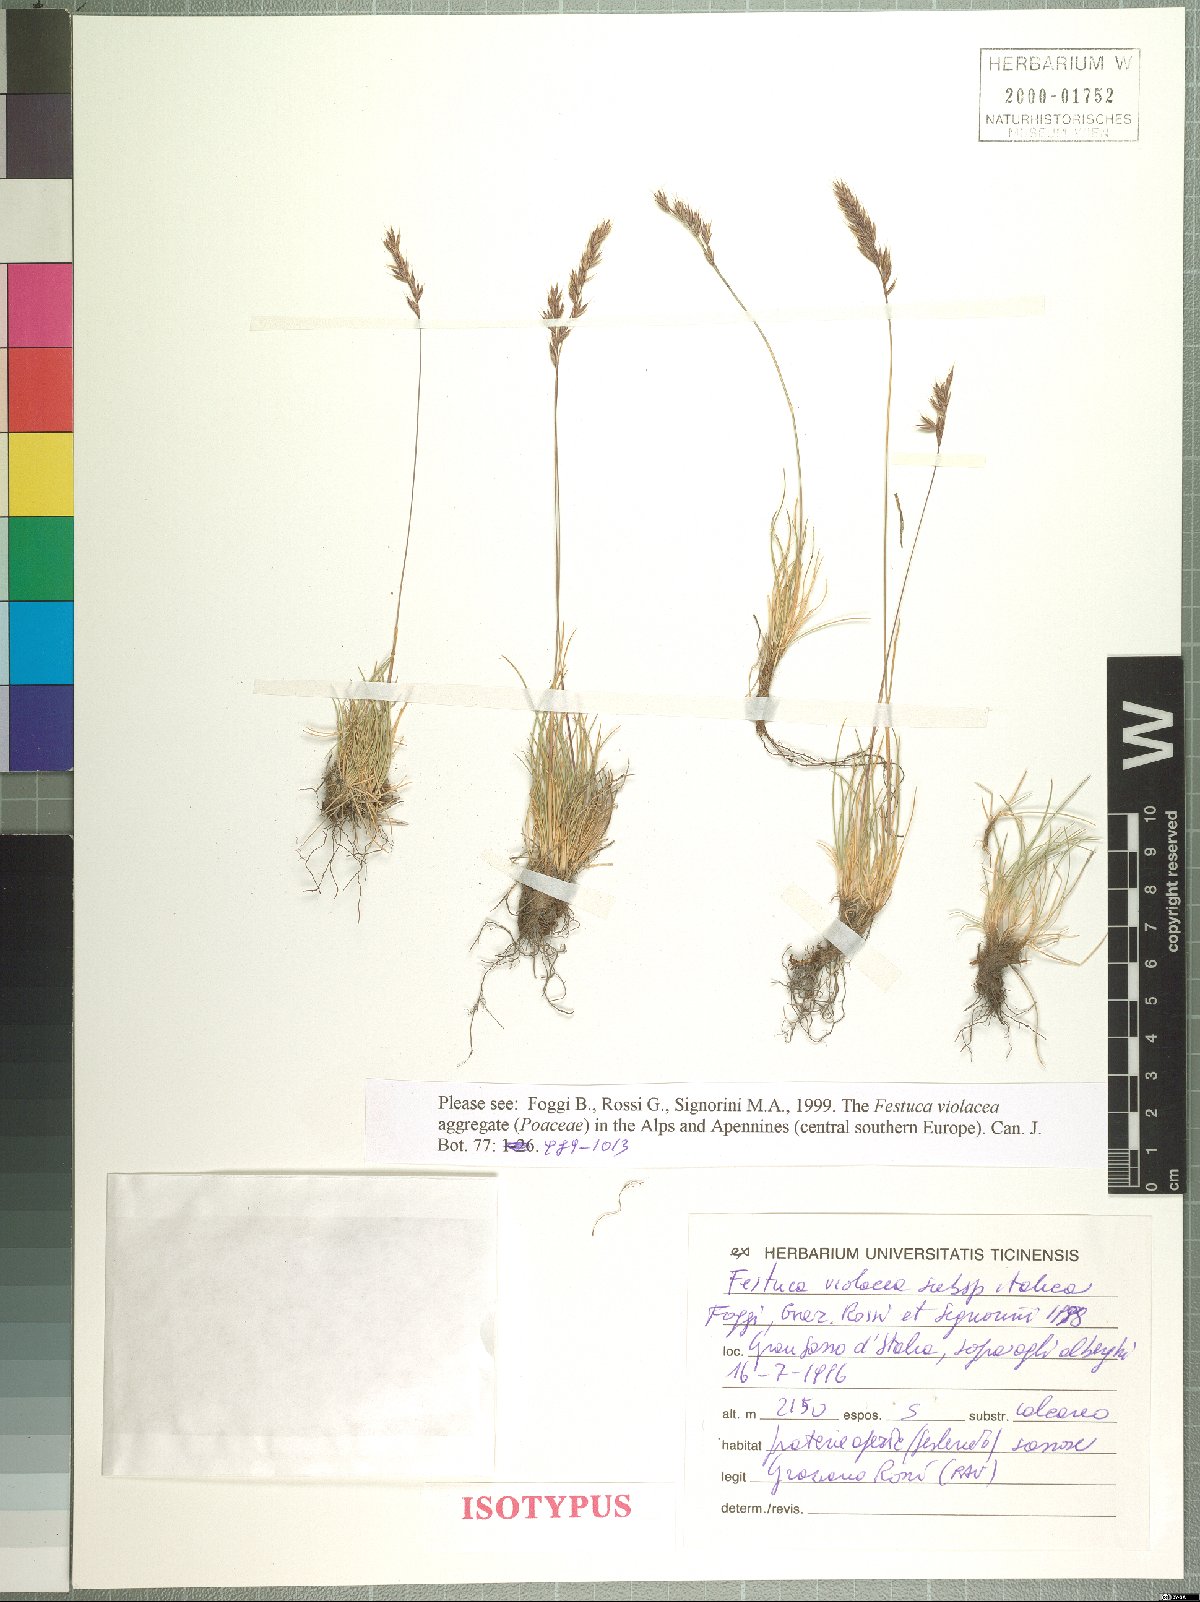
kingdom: Plantae
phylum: Tracheophyta
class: Liliopsida
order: Poales
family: Poaceae
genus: Festuca
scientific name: Festuca violacea
